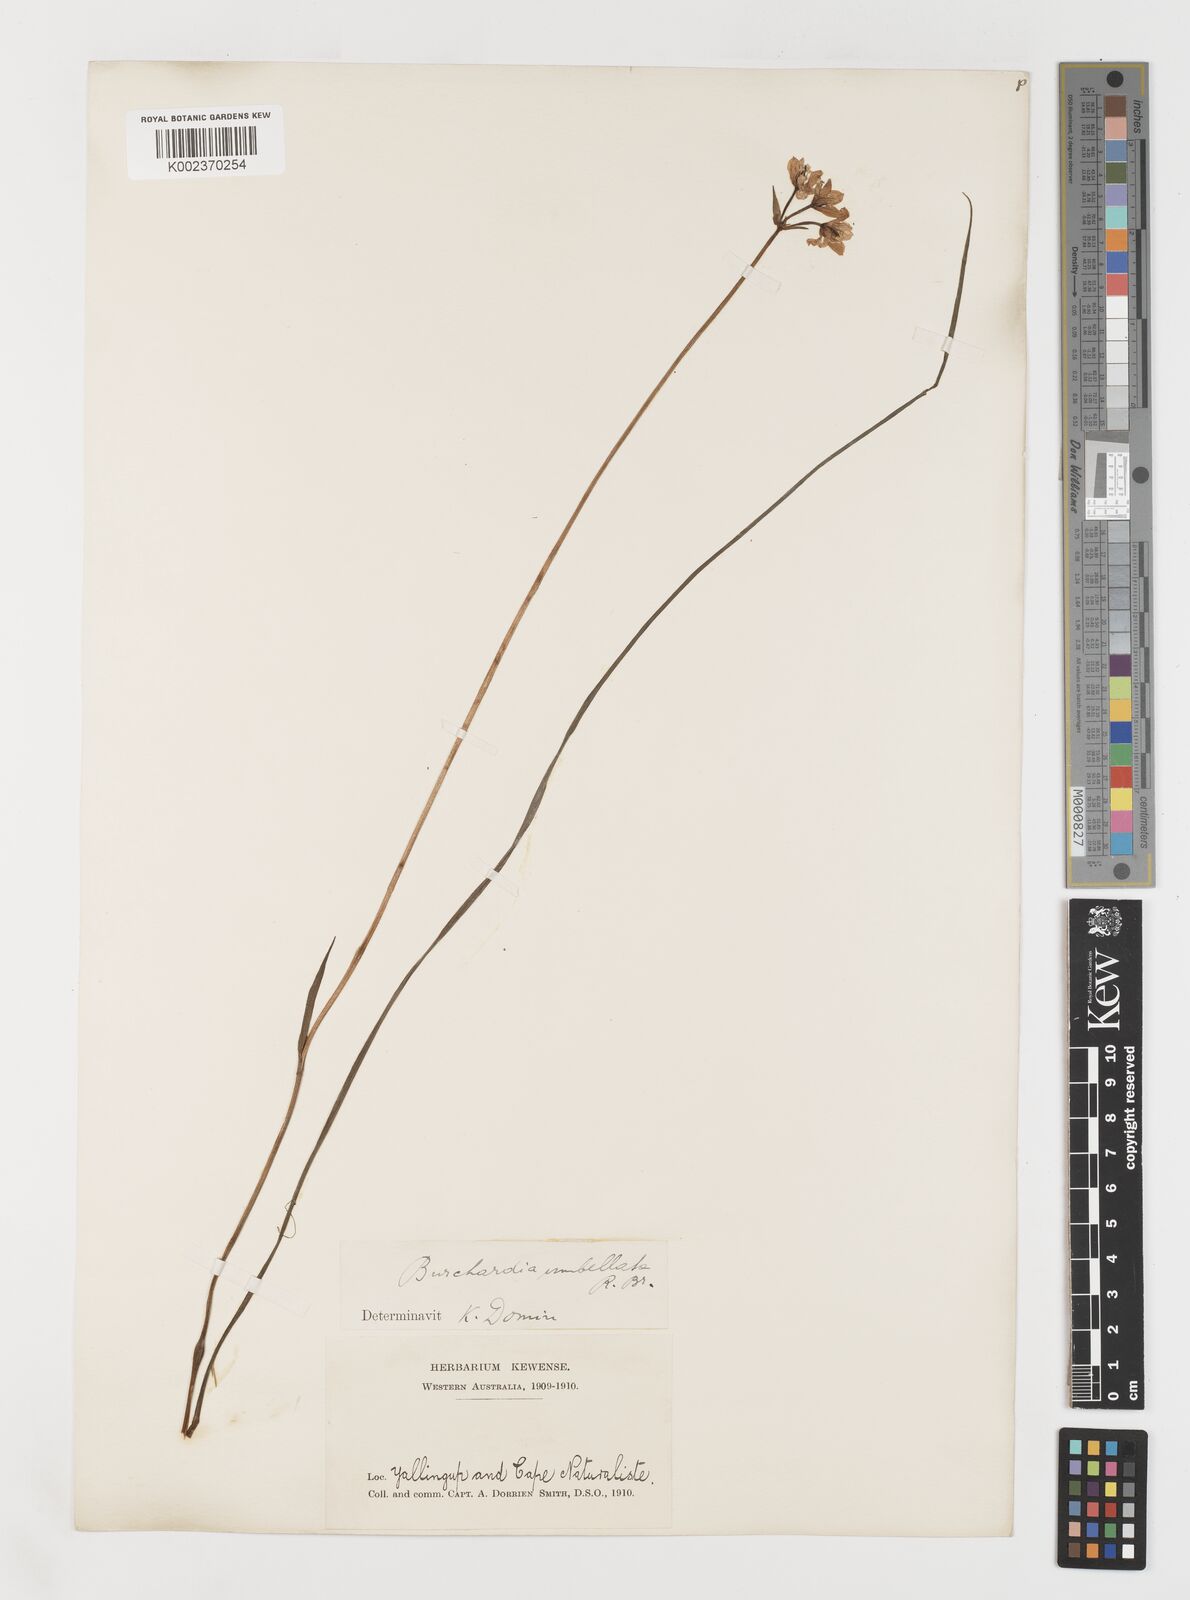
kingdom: Plantae
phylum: Tracheophyta
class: Liliopsida
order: Liliales
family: Colchicaceae
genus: Burchardia
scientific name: Burchardia umbellata
